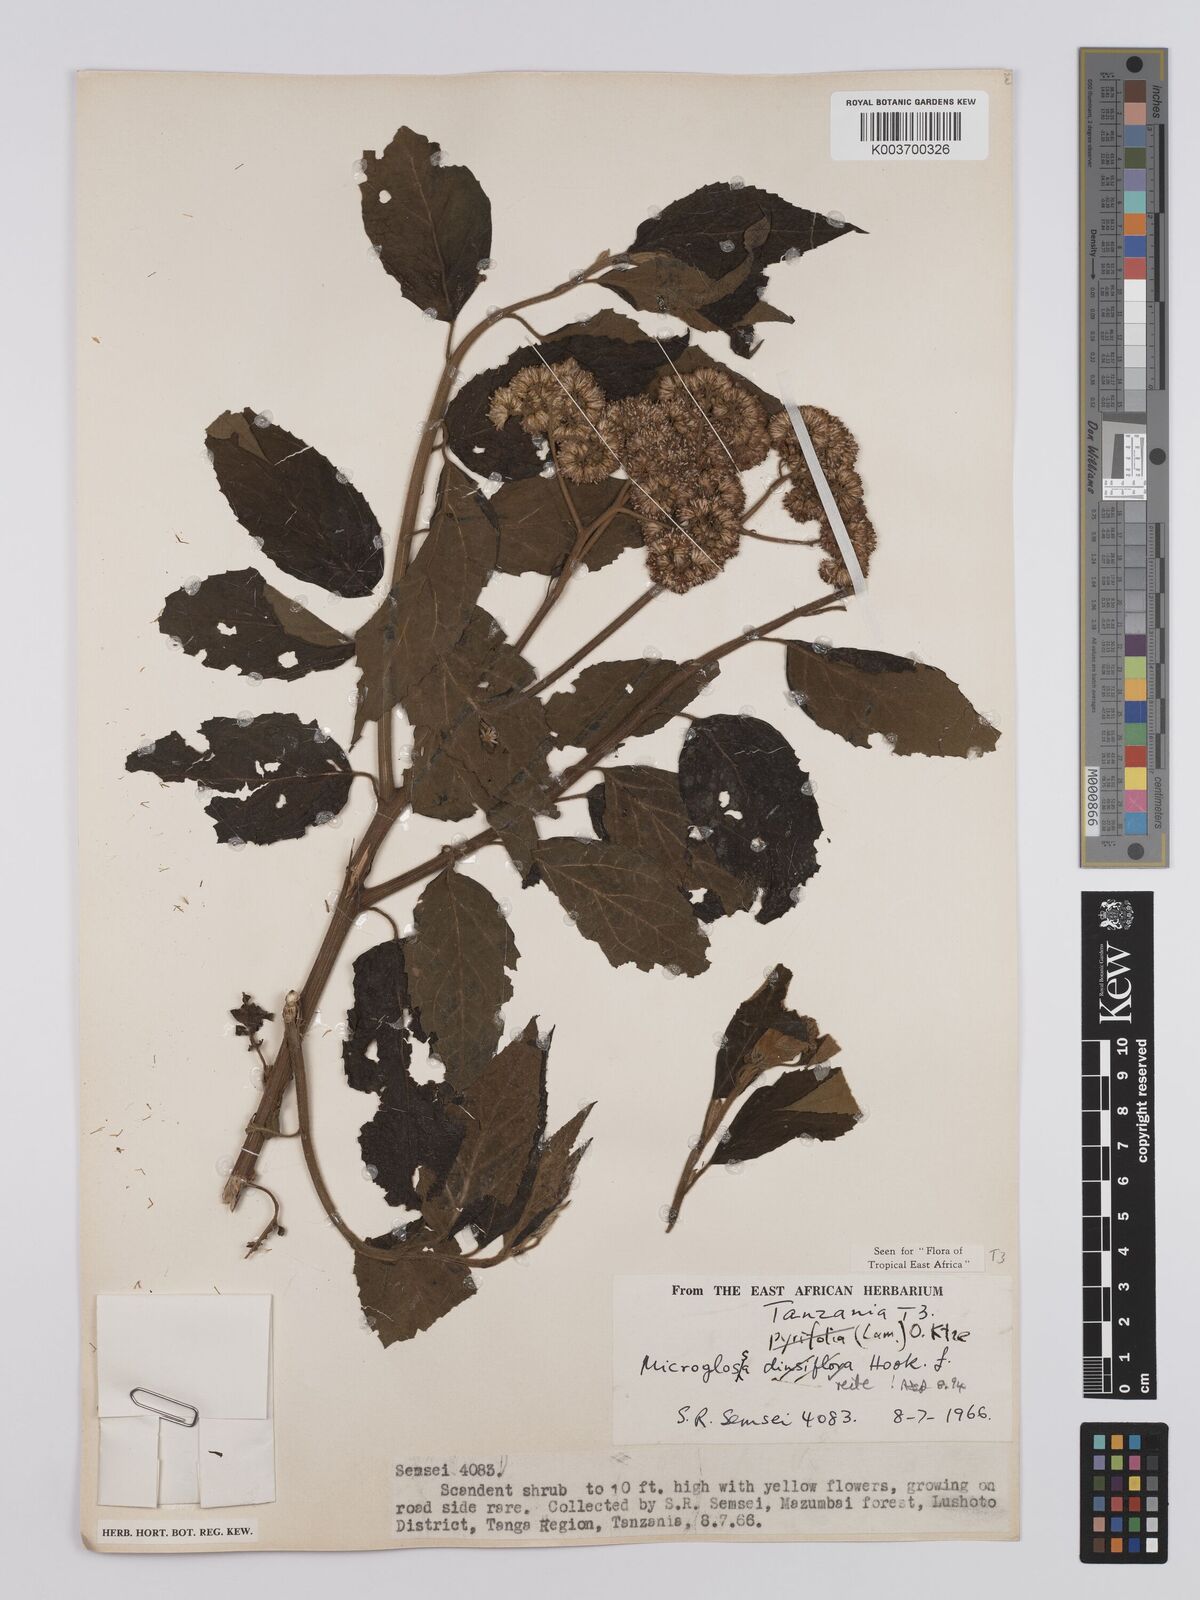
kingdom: Plantae
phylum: Tracheophyta
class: Magnoliopsida
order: Asterales
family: Asteraceae
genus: Microglossa
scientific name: Microglossa densiflora
